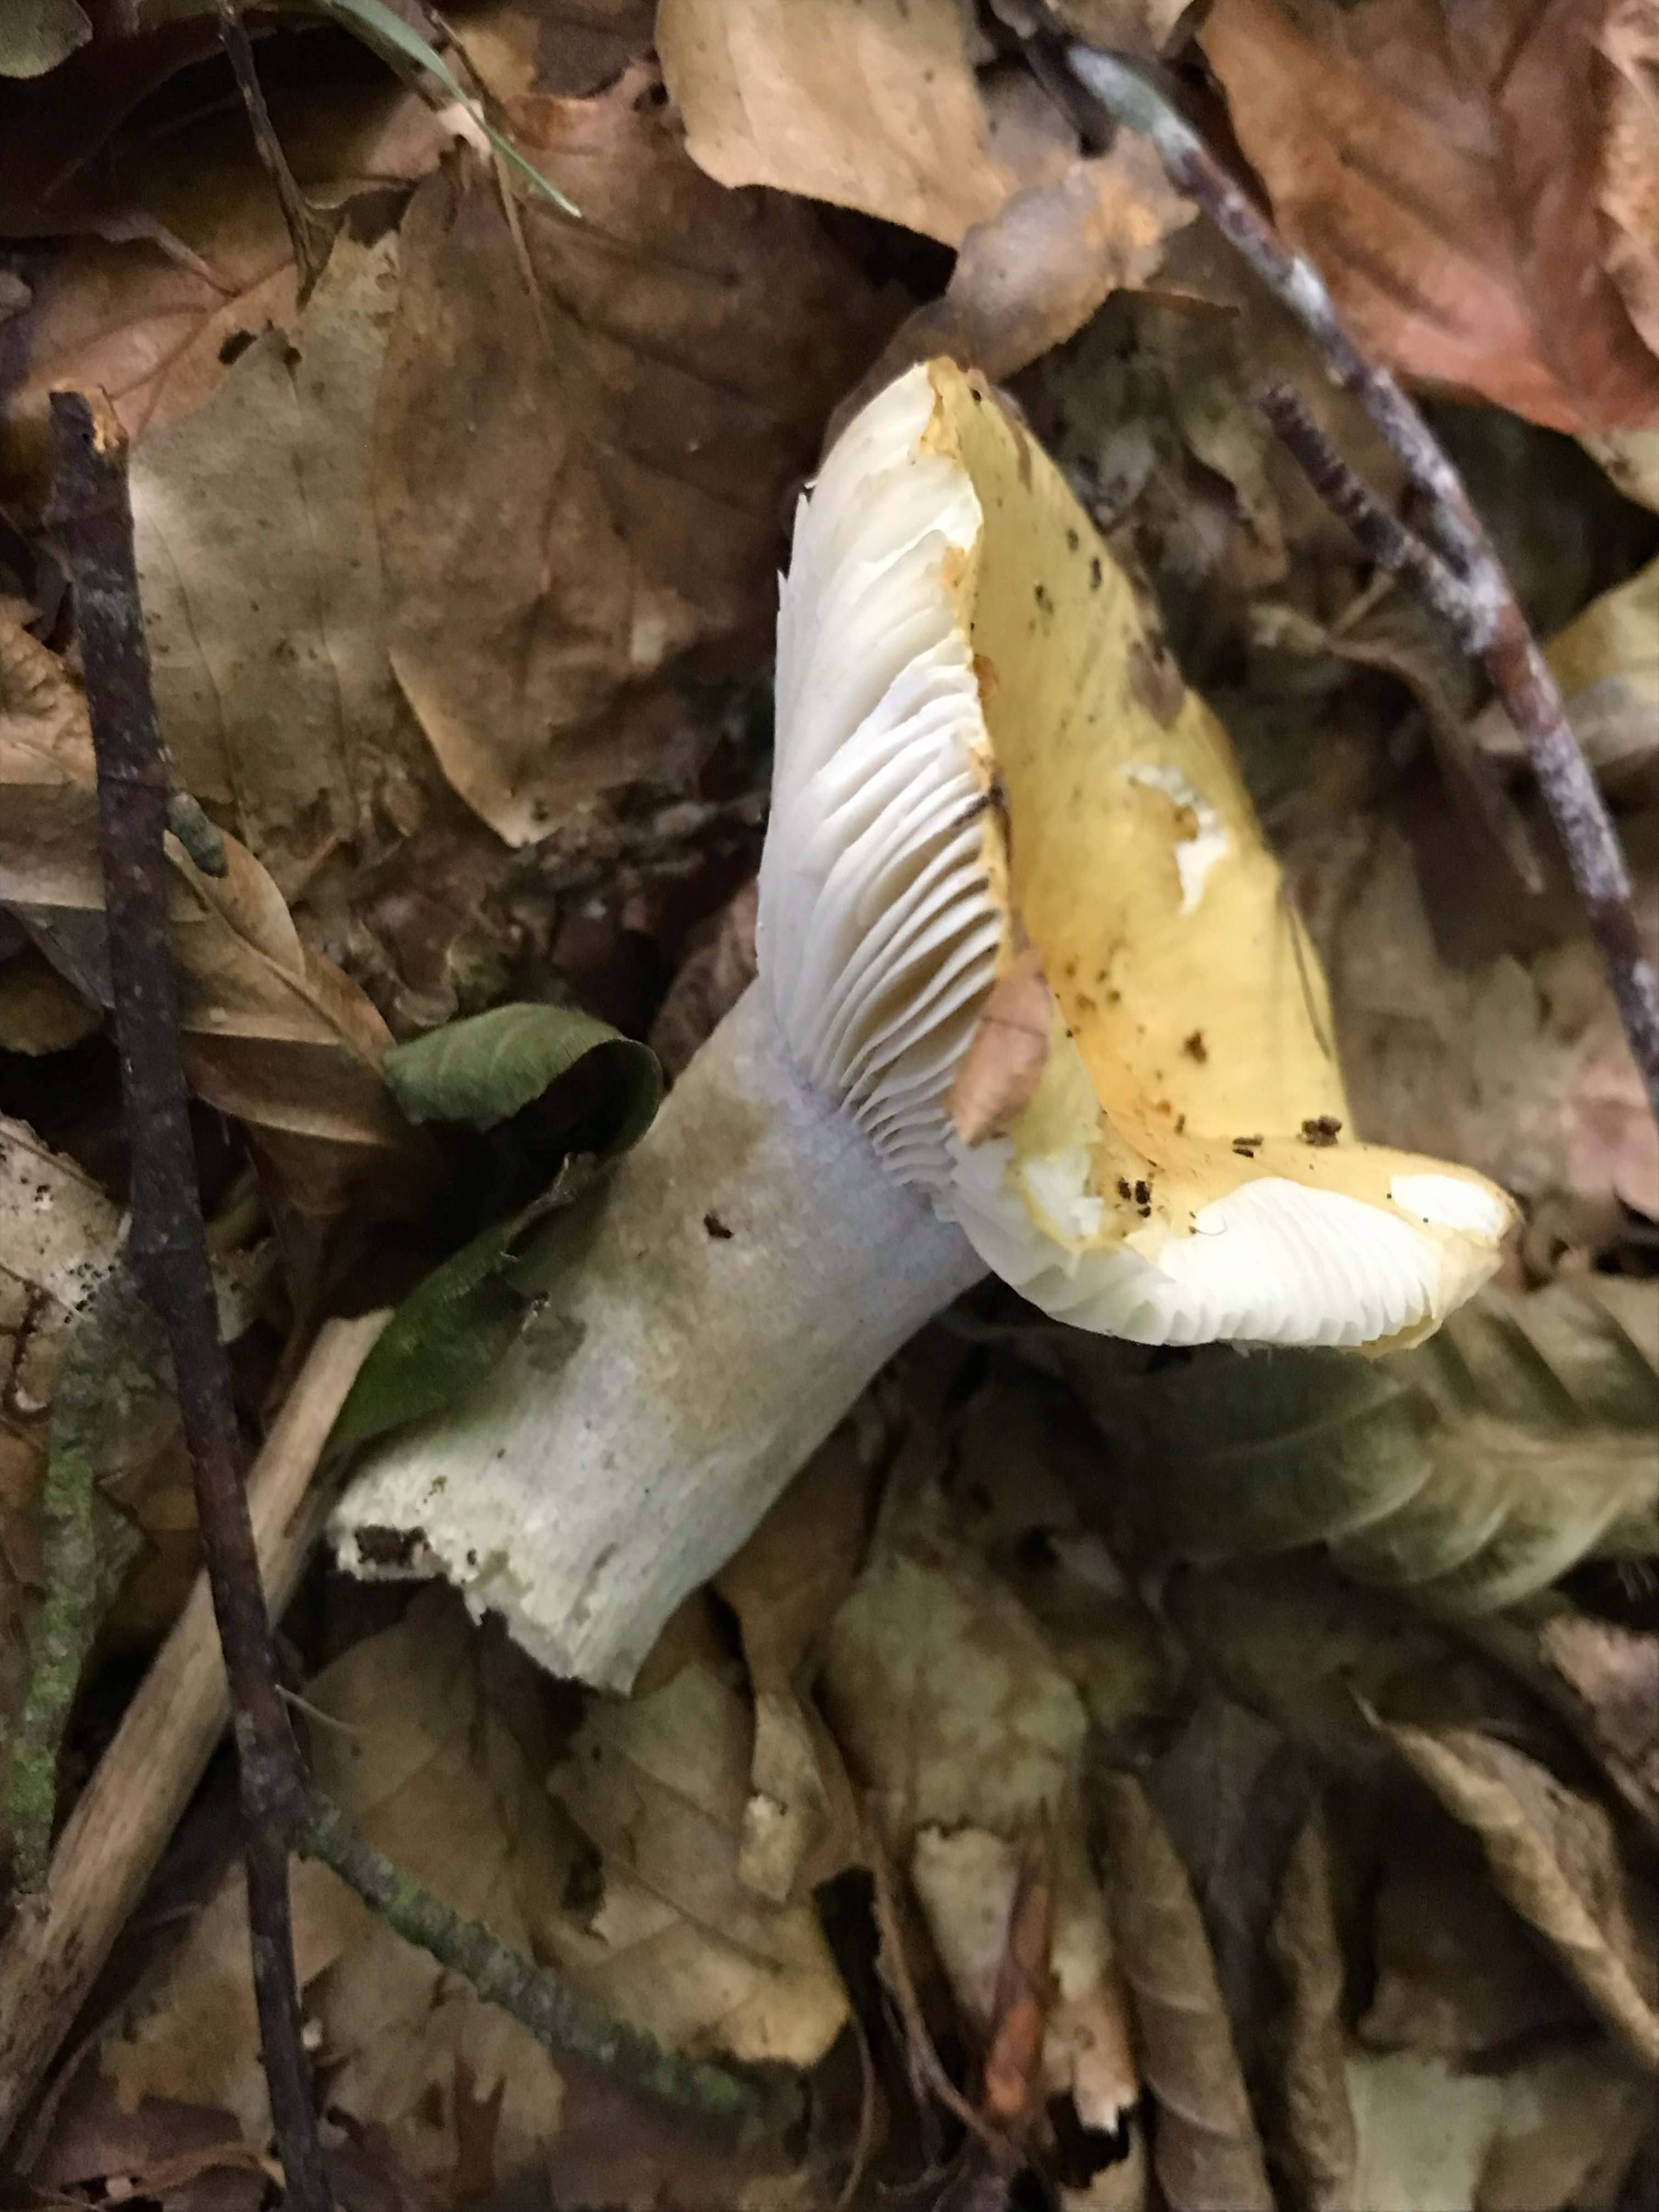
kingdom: Fungi
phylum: Basidiomycota
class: Agaricomycetes
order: Russulales
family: Russulaceae
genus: Russula
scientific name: Russula ochroleuca
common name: okkergul skørhat
